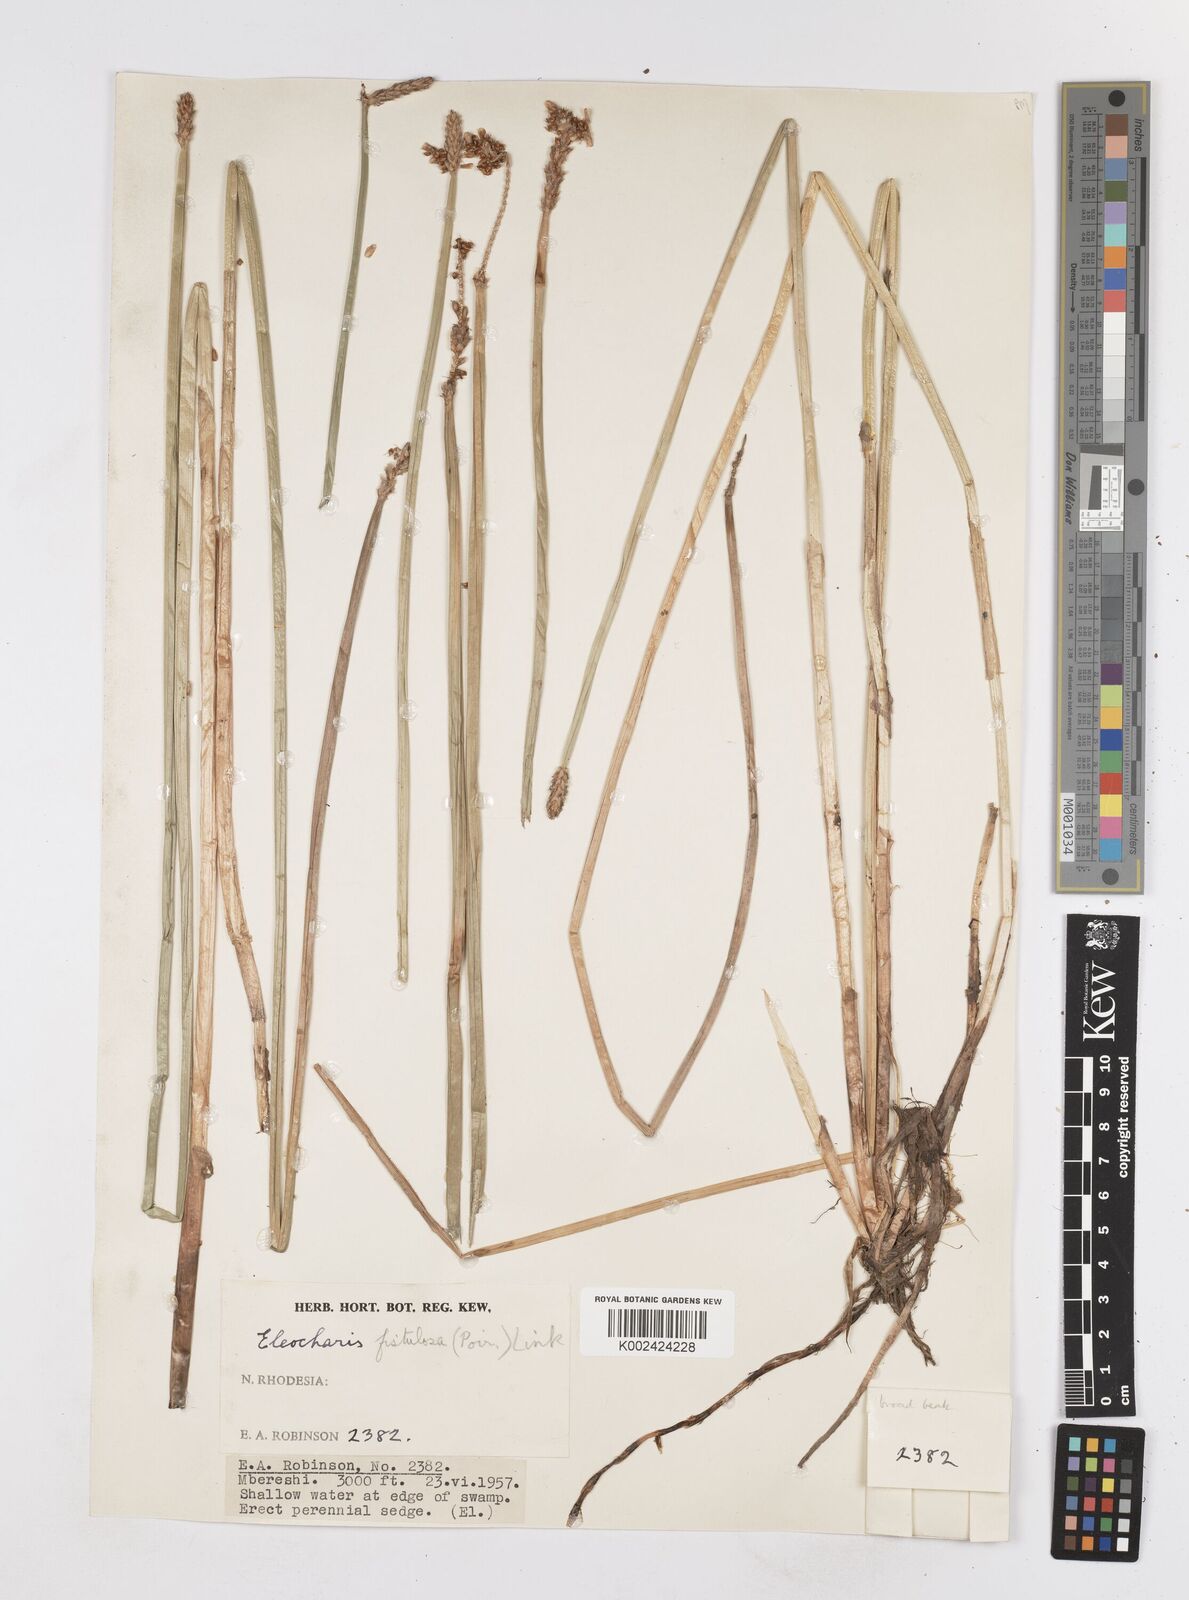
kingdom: Plantae
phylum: Tracheophyta
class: Liliopsida
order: Poales
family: Cyperaceae
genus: Eleocharis
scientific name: Eleocharis acutangula
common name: Acute spikerush
